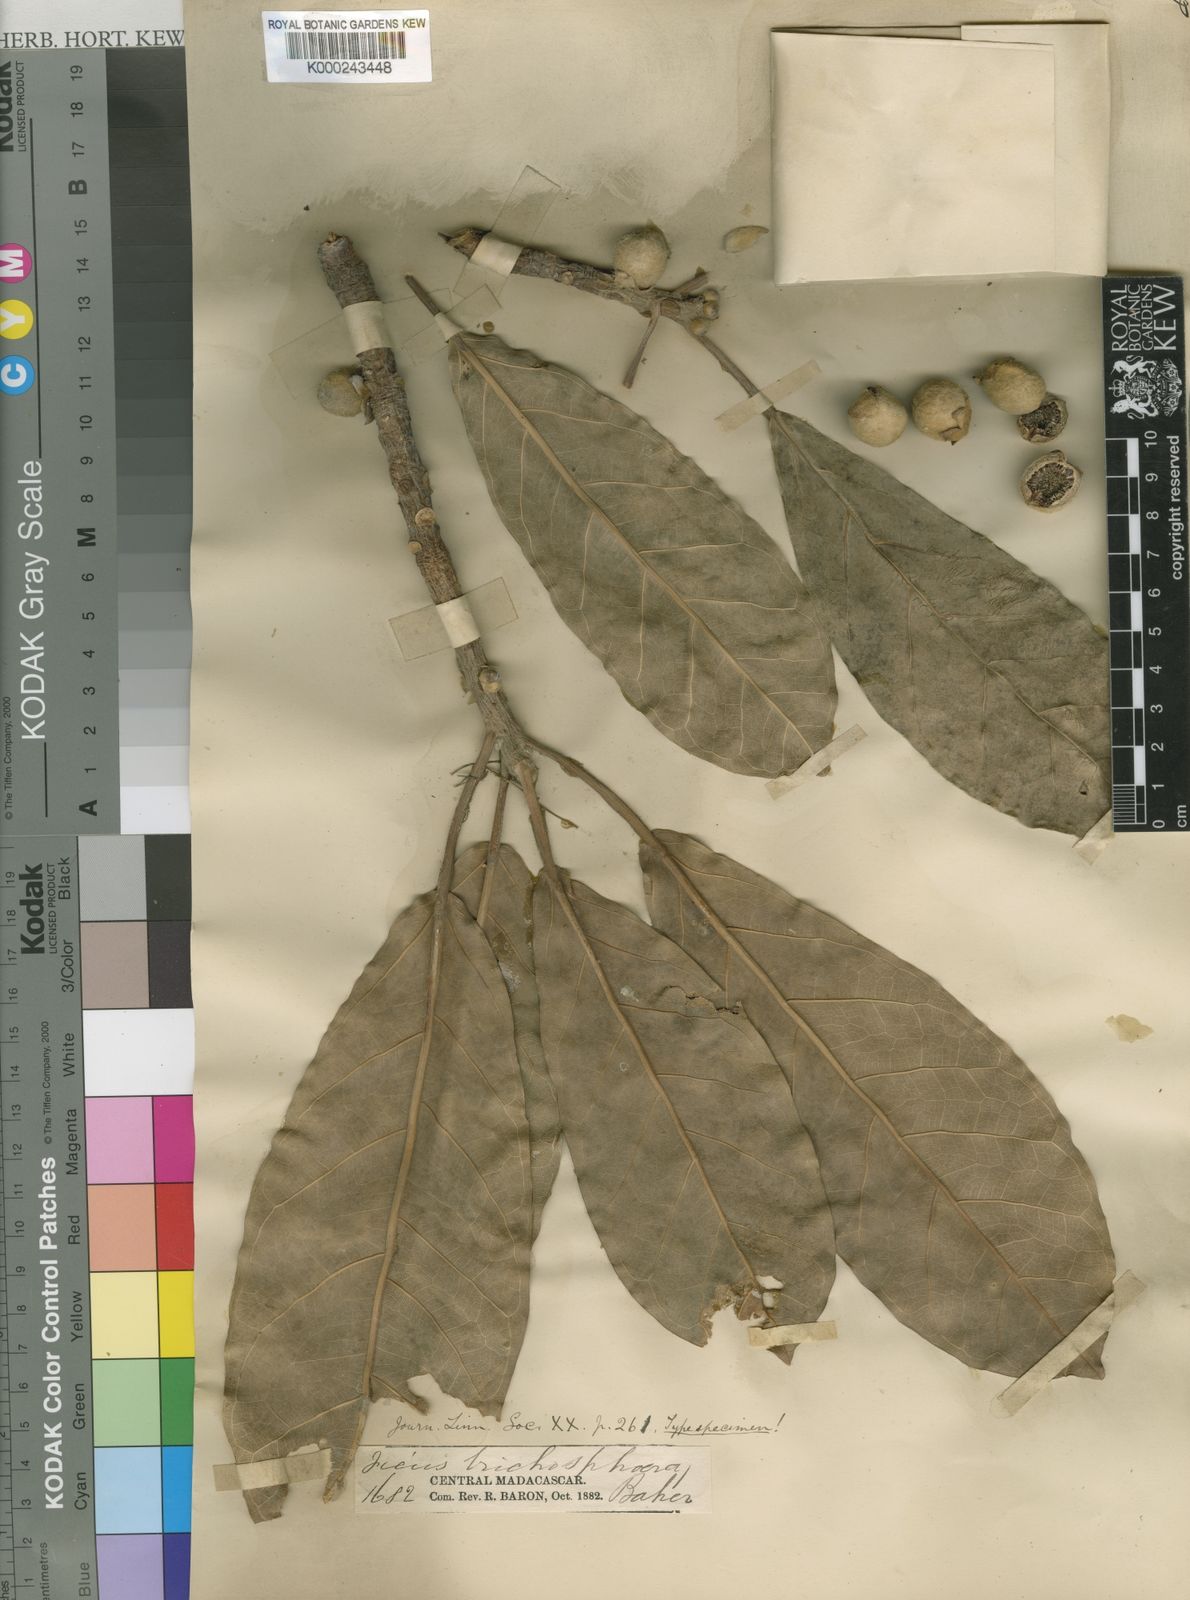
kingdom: Plantae
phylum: Tracheophyta
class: Magnoliopsida
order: Rosales
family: Moraceae
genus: Ficus
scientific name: Ficus lutea
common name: Giant-leaved fig
